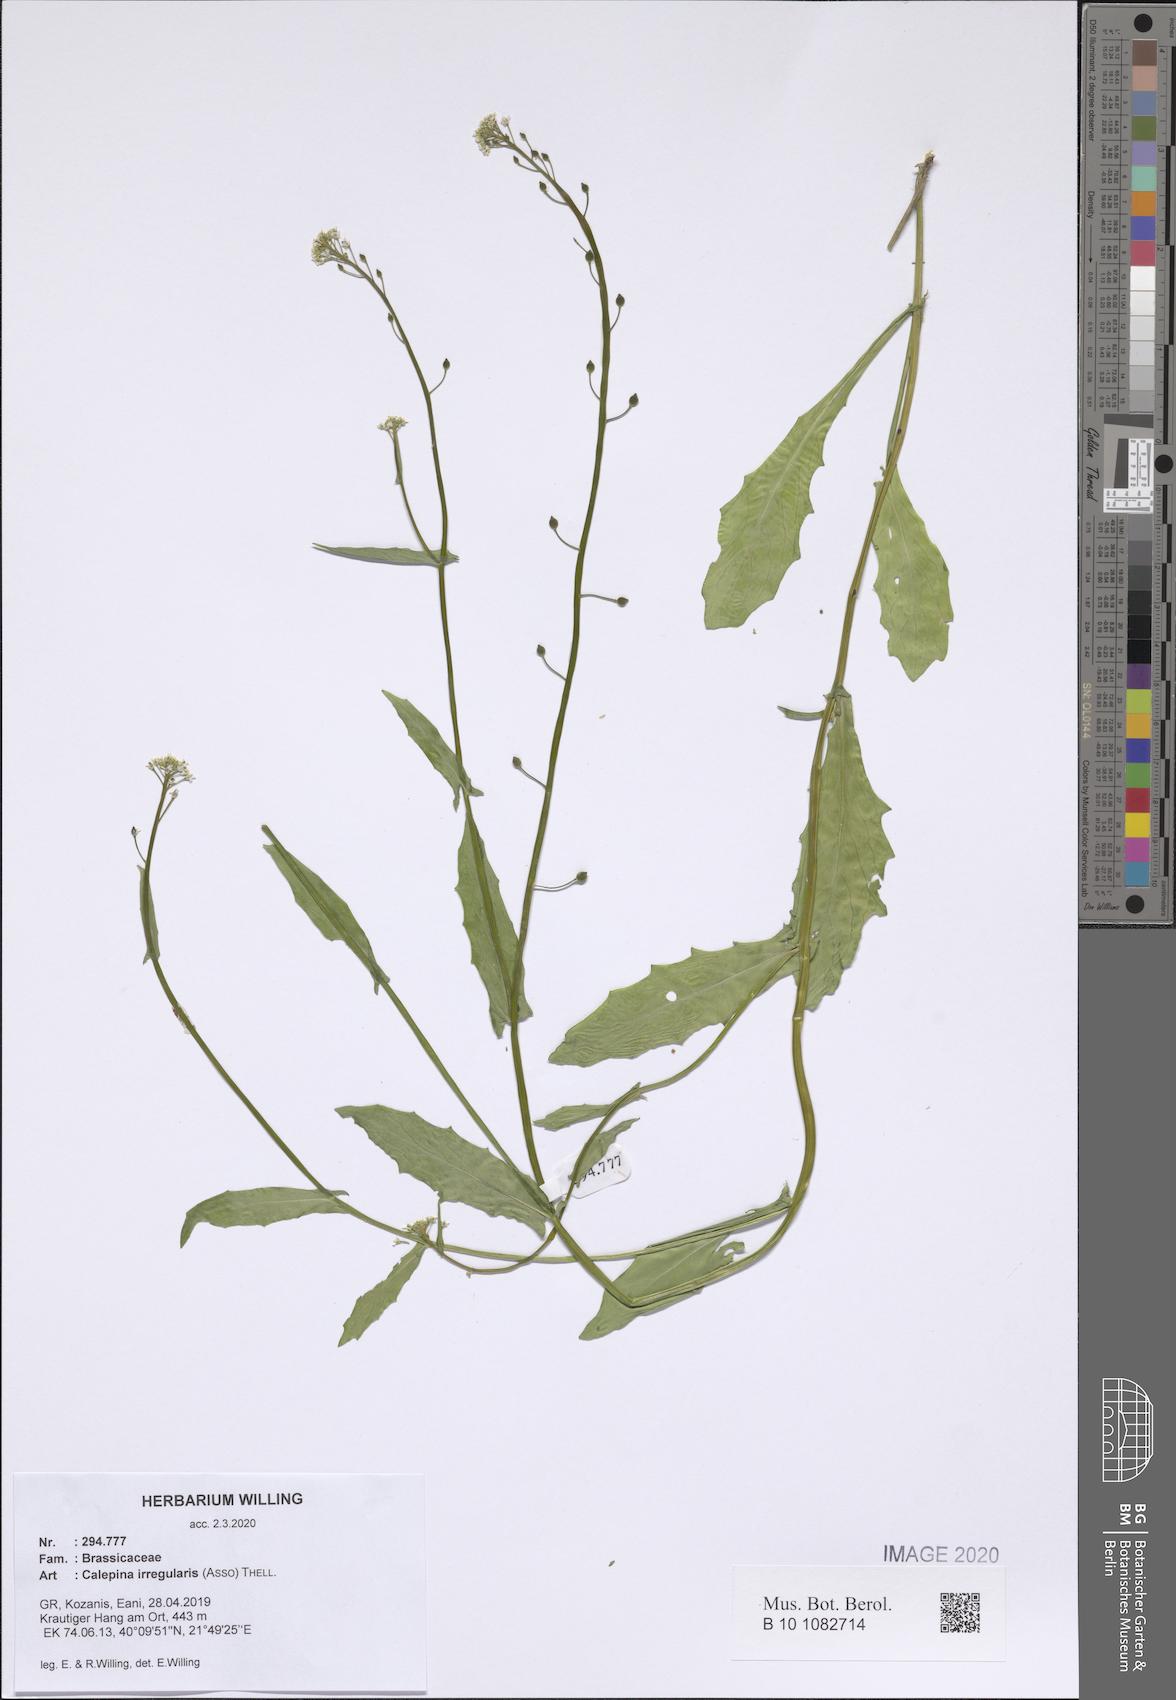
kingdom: Plantae
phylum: Tracheophyta
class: Magnoliopsida
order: Brassicales
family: Brassicaceae
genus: Calepina
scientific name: Calepina irregularis
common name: White ballmustard
